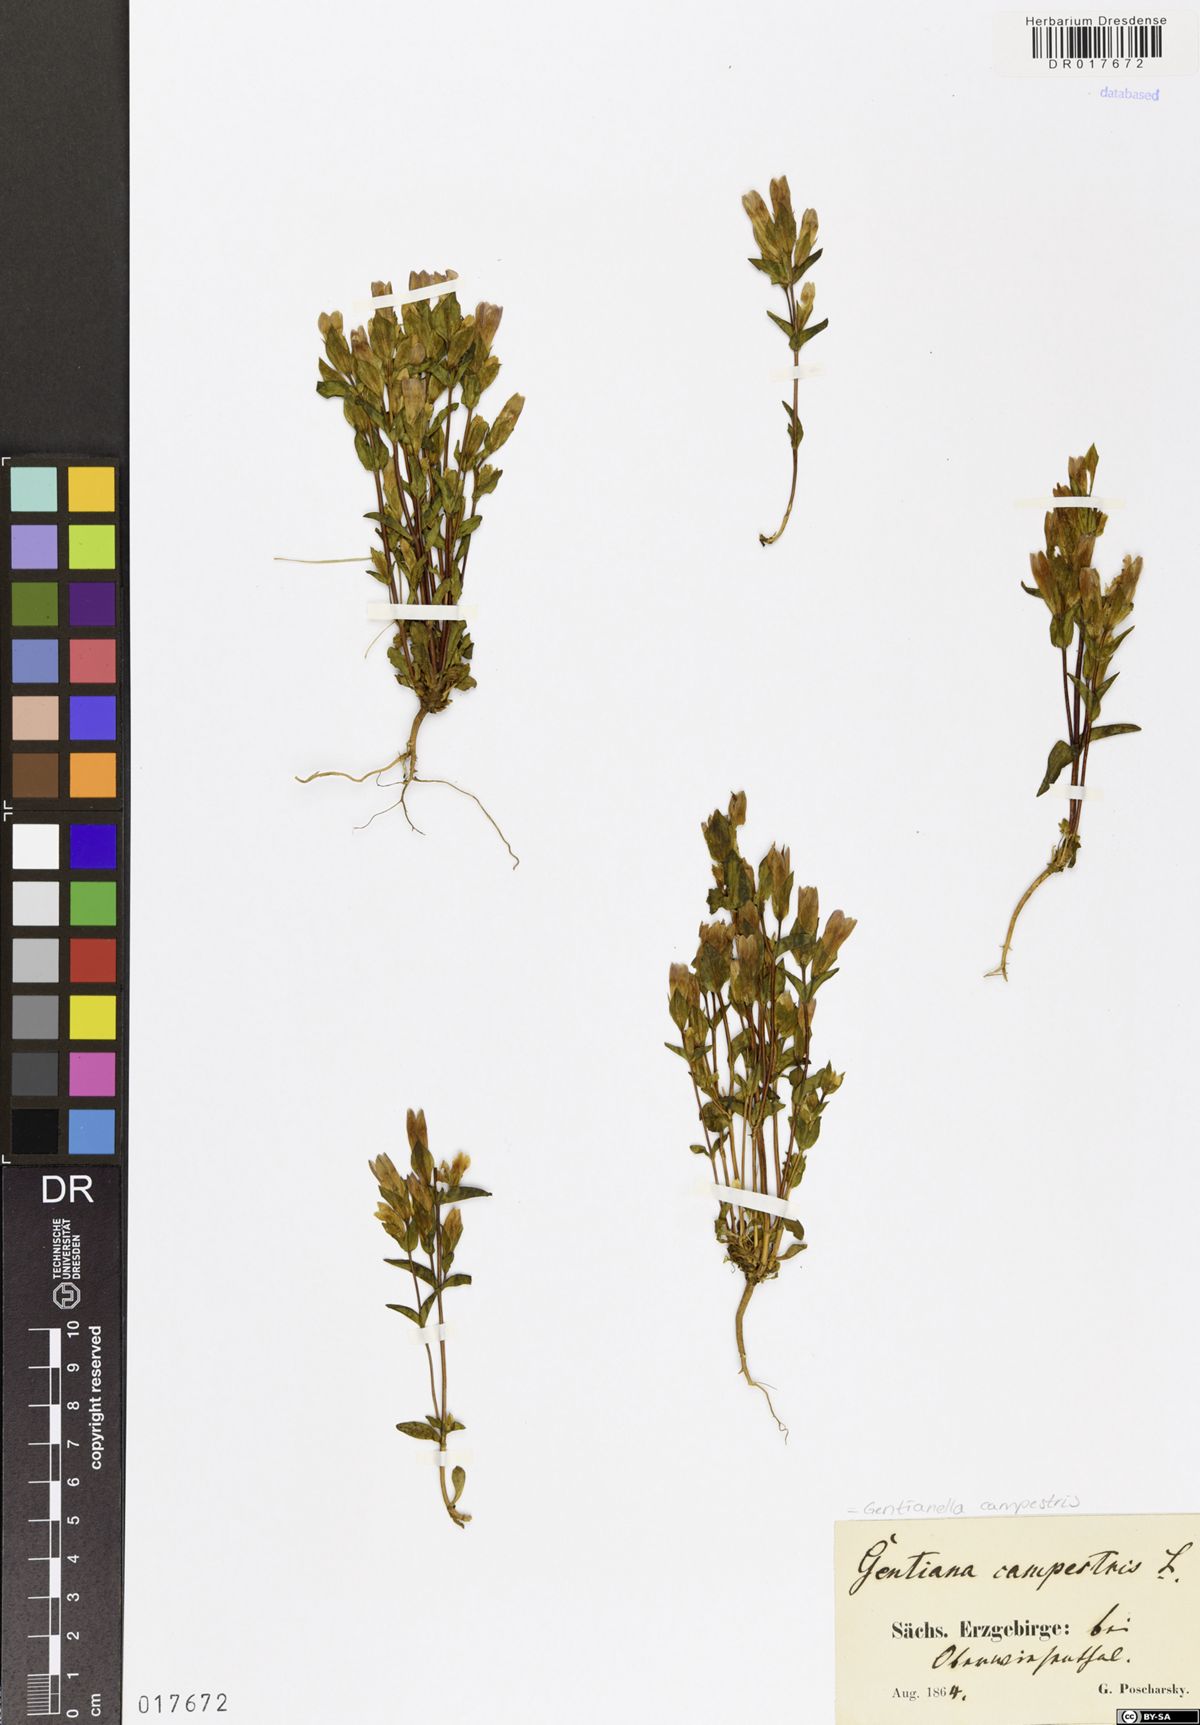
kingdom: Plantae
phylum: Tracheophyta
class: Magnoliopsida
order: Gentianales
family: Gentianaceae
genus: Gentianella
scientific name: Gentianella campestris
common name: Field gentian
